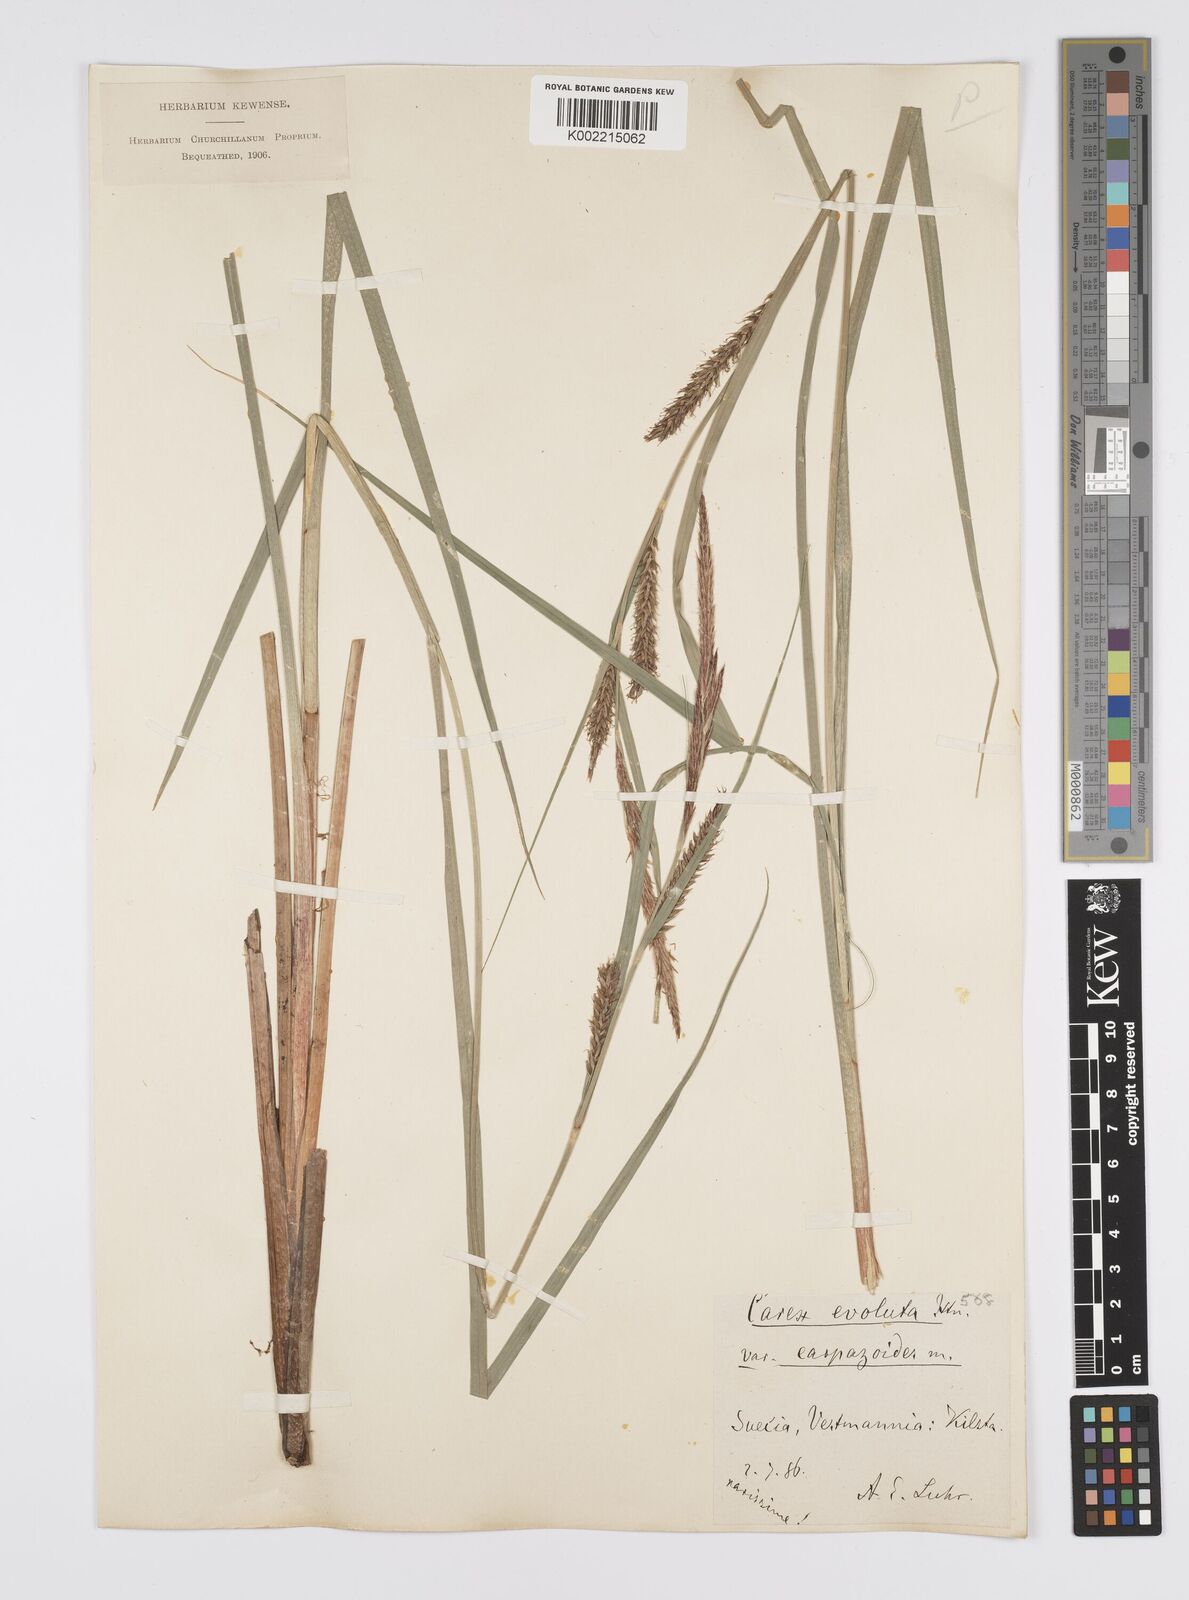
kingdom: Plantae
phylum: Tracheophyta
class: Liliopsida
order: Poales
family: Cyperaceae
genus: Carex
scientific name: Carex evoluta
